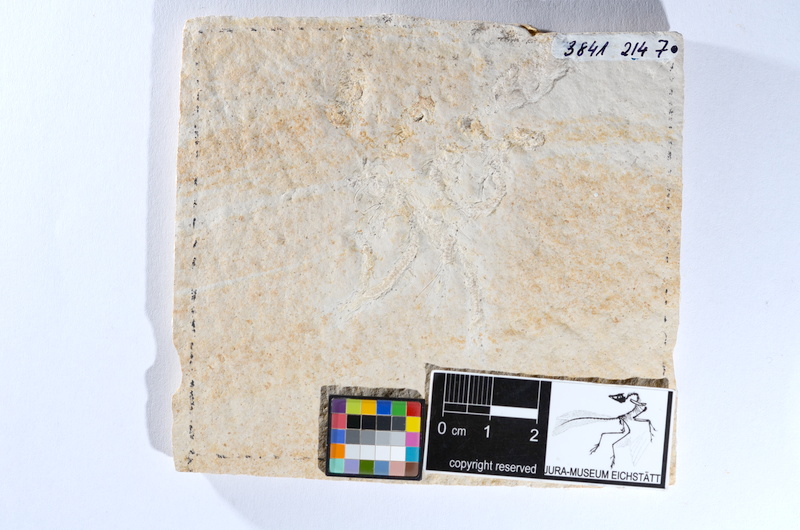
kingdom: Animalia
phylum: Chordata
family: Ascalaboidae
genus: Tharsis
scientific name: Tharsis dubius
